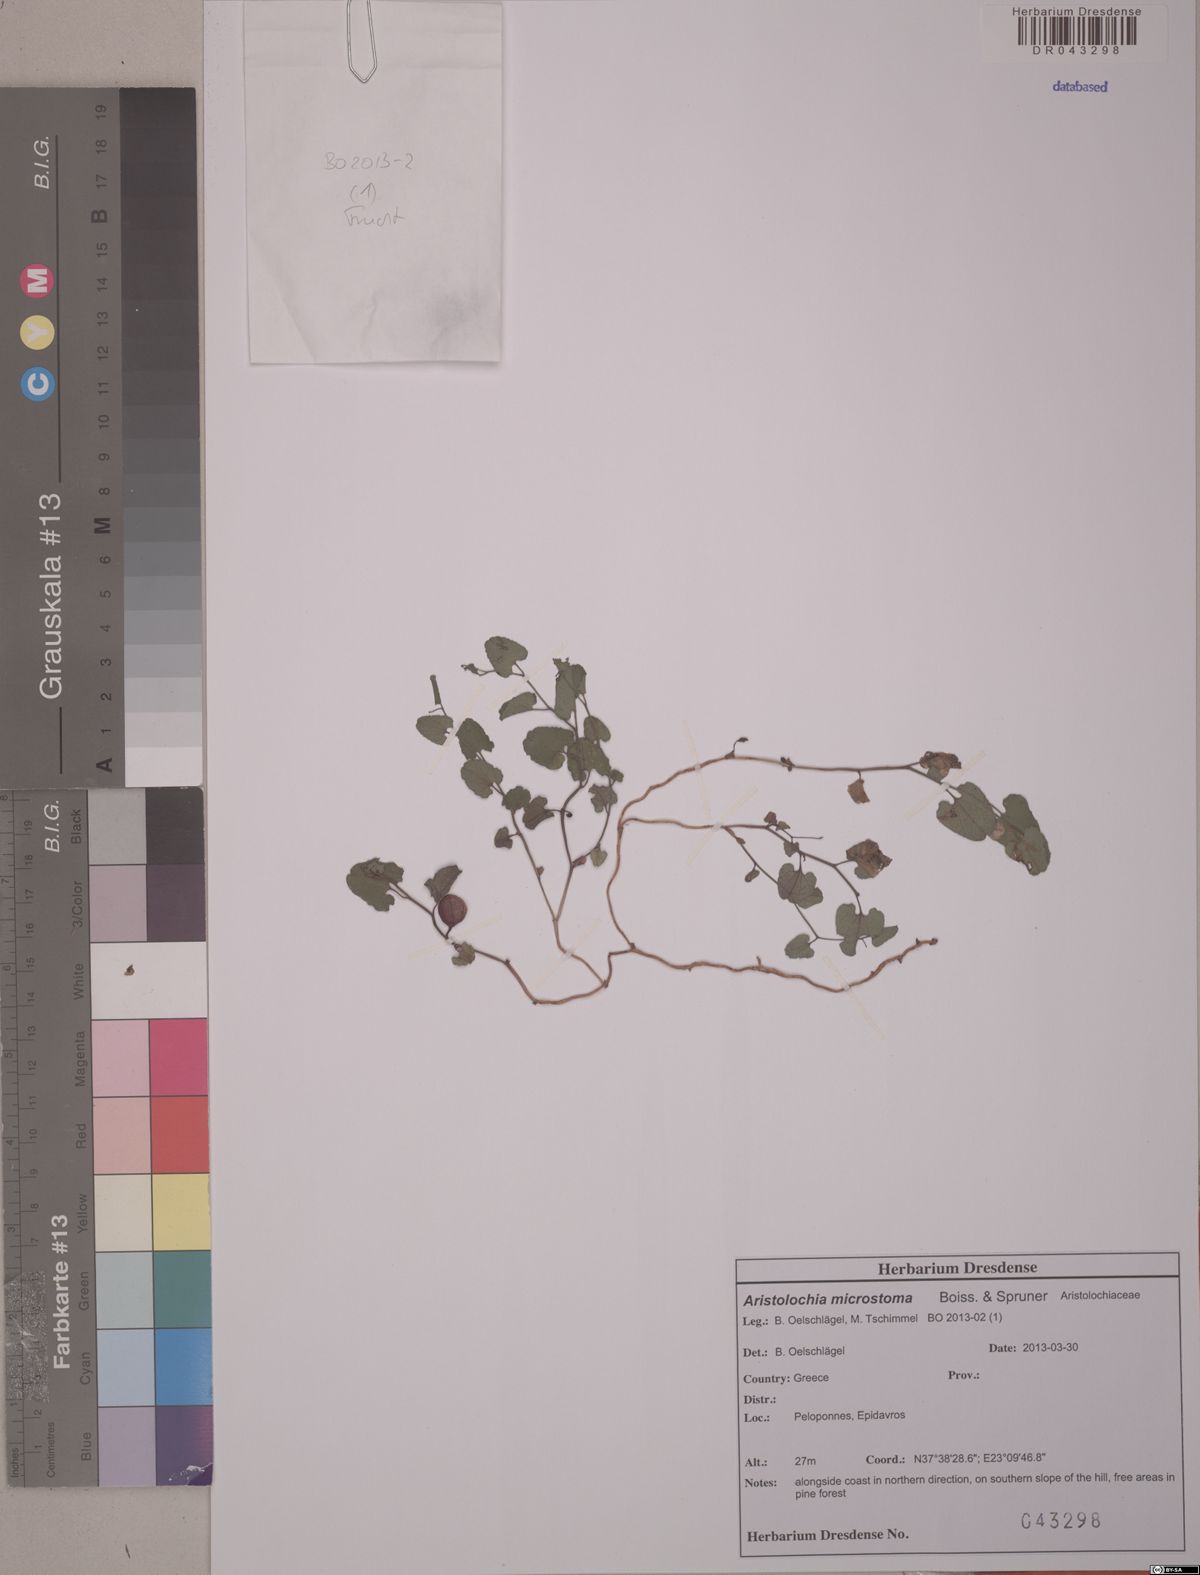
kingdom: Plantae
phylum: Tracheophyta
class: Magnoliopsida
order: Piperales
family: Aristolochiaceae
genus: Aristolochia
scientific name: Aristolochia microstoma
